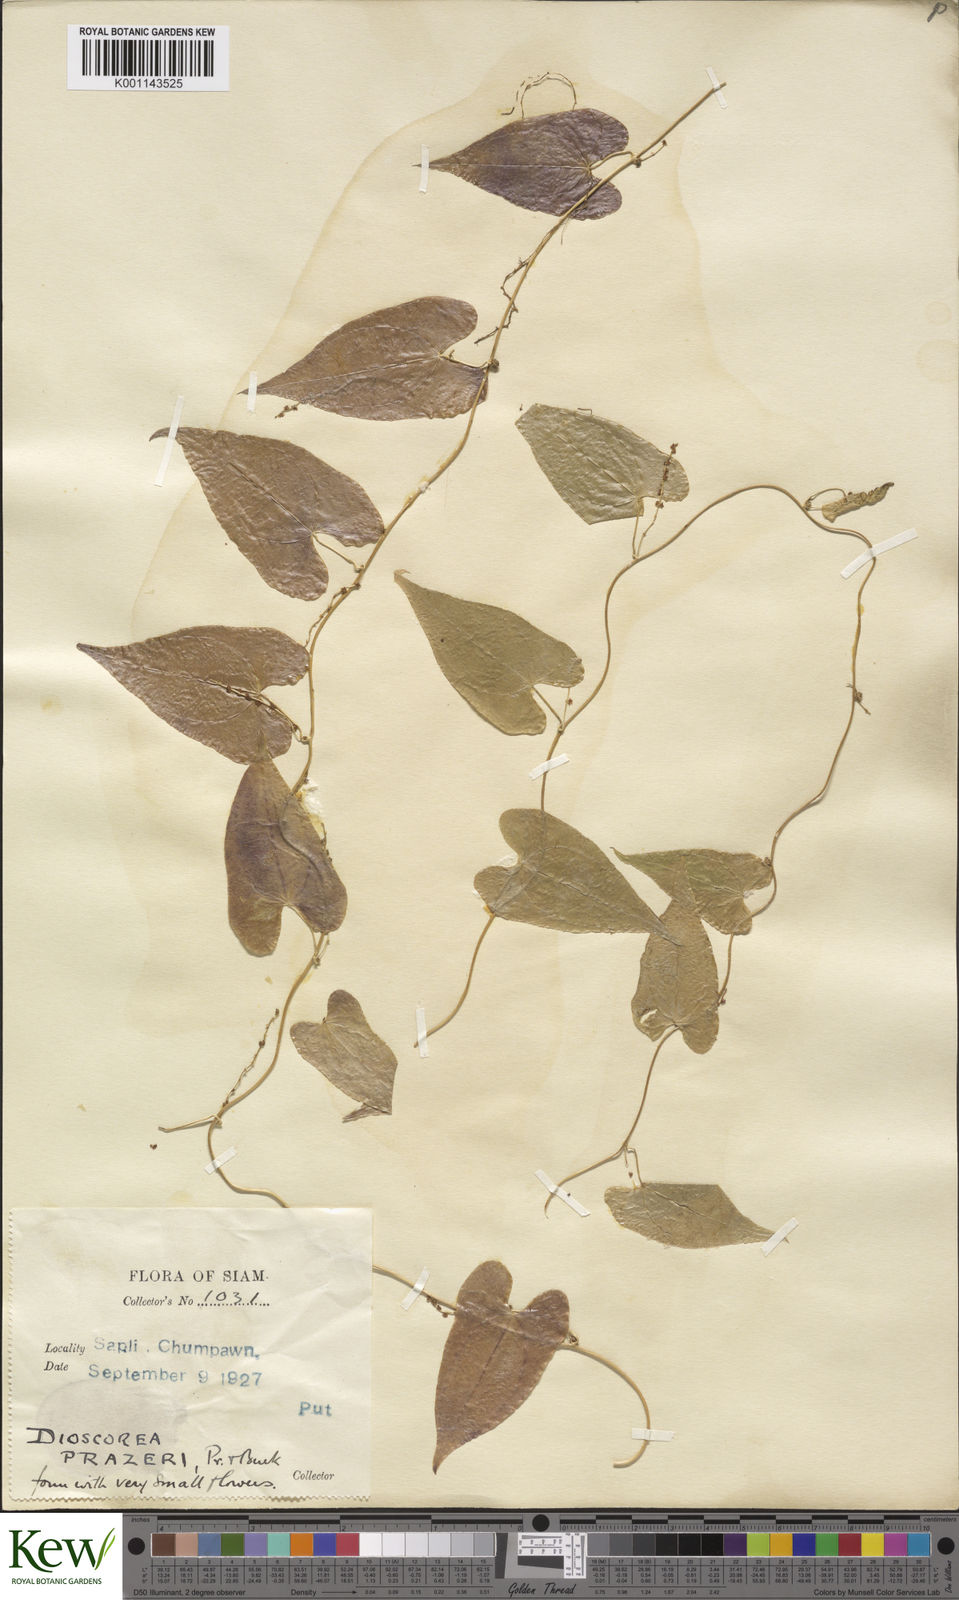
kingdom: Plantae
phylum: Tracheophyta
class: Liliopsida
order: Dioscoreales
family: Dioscoreaceae
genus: Dioscorea
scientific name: Dioscorea prazeri
